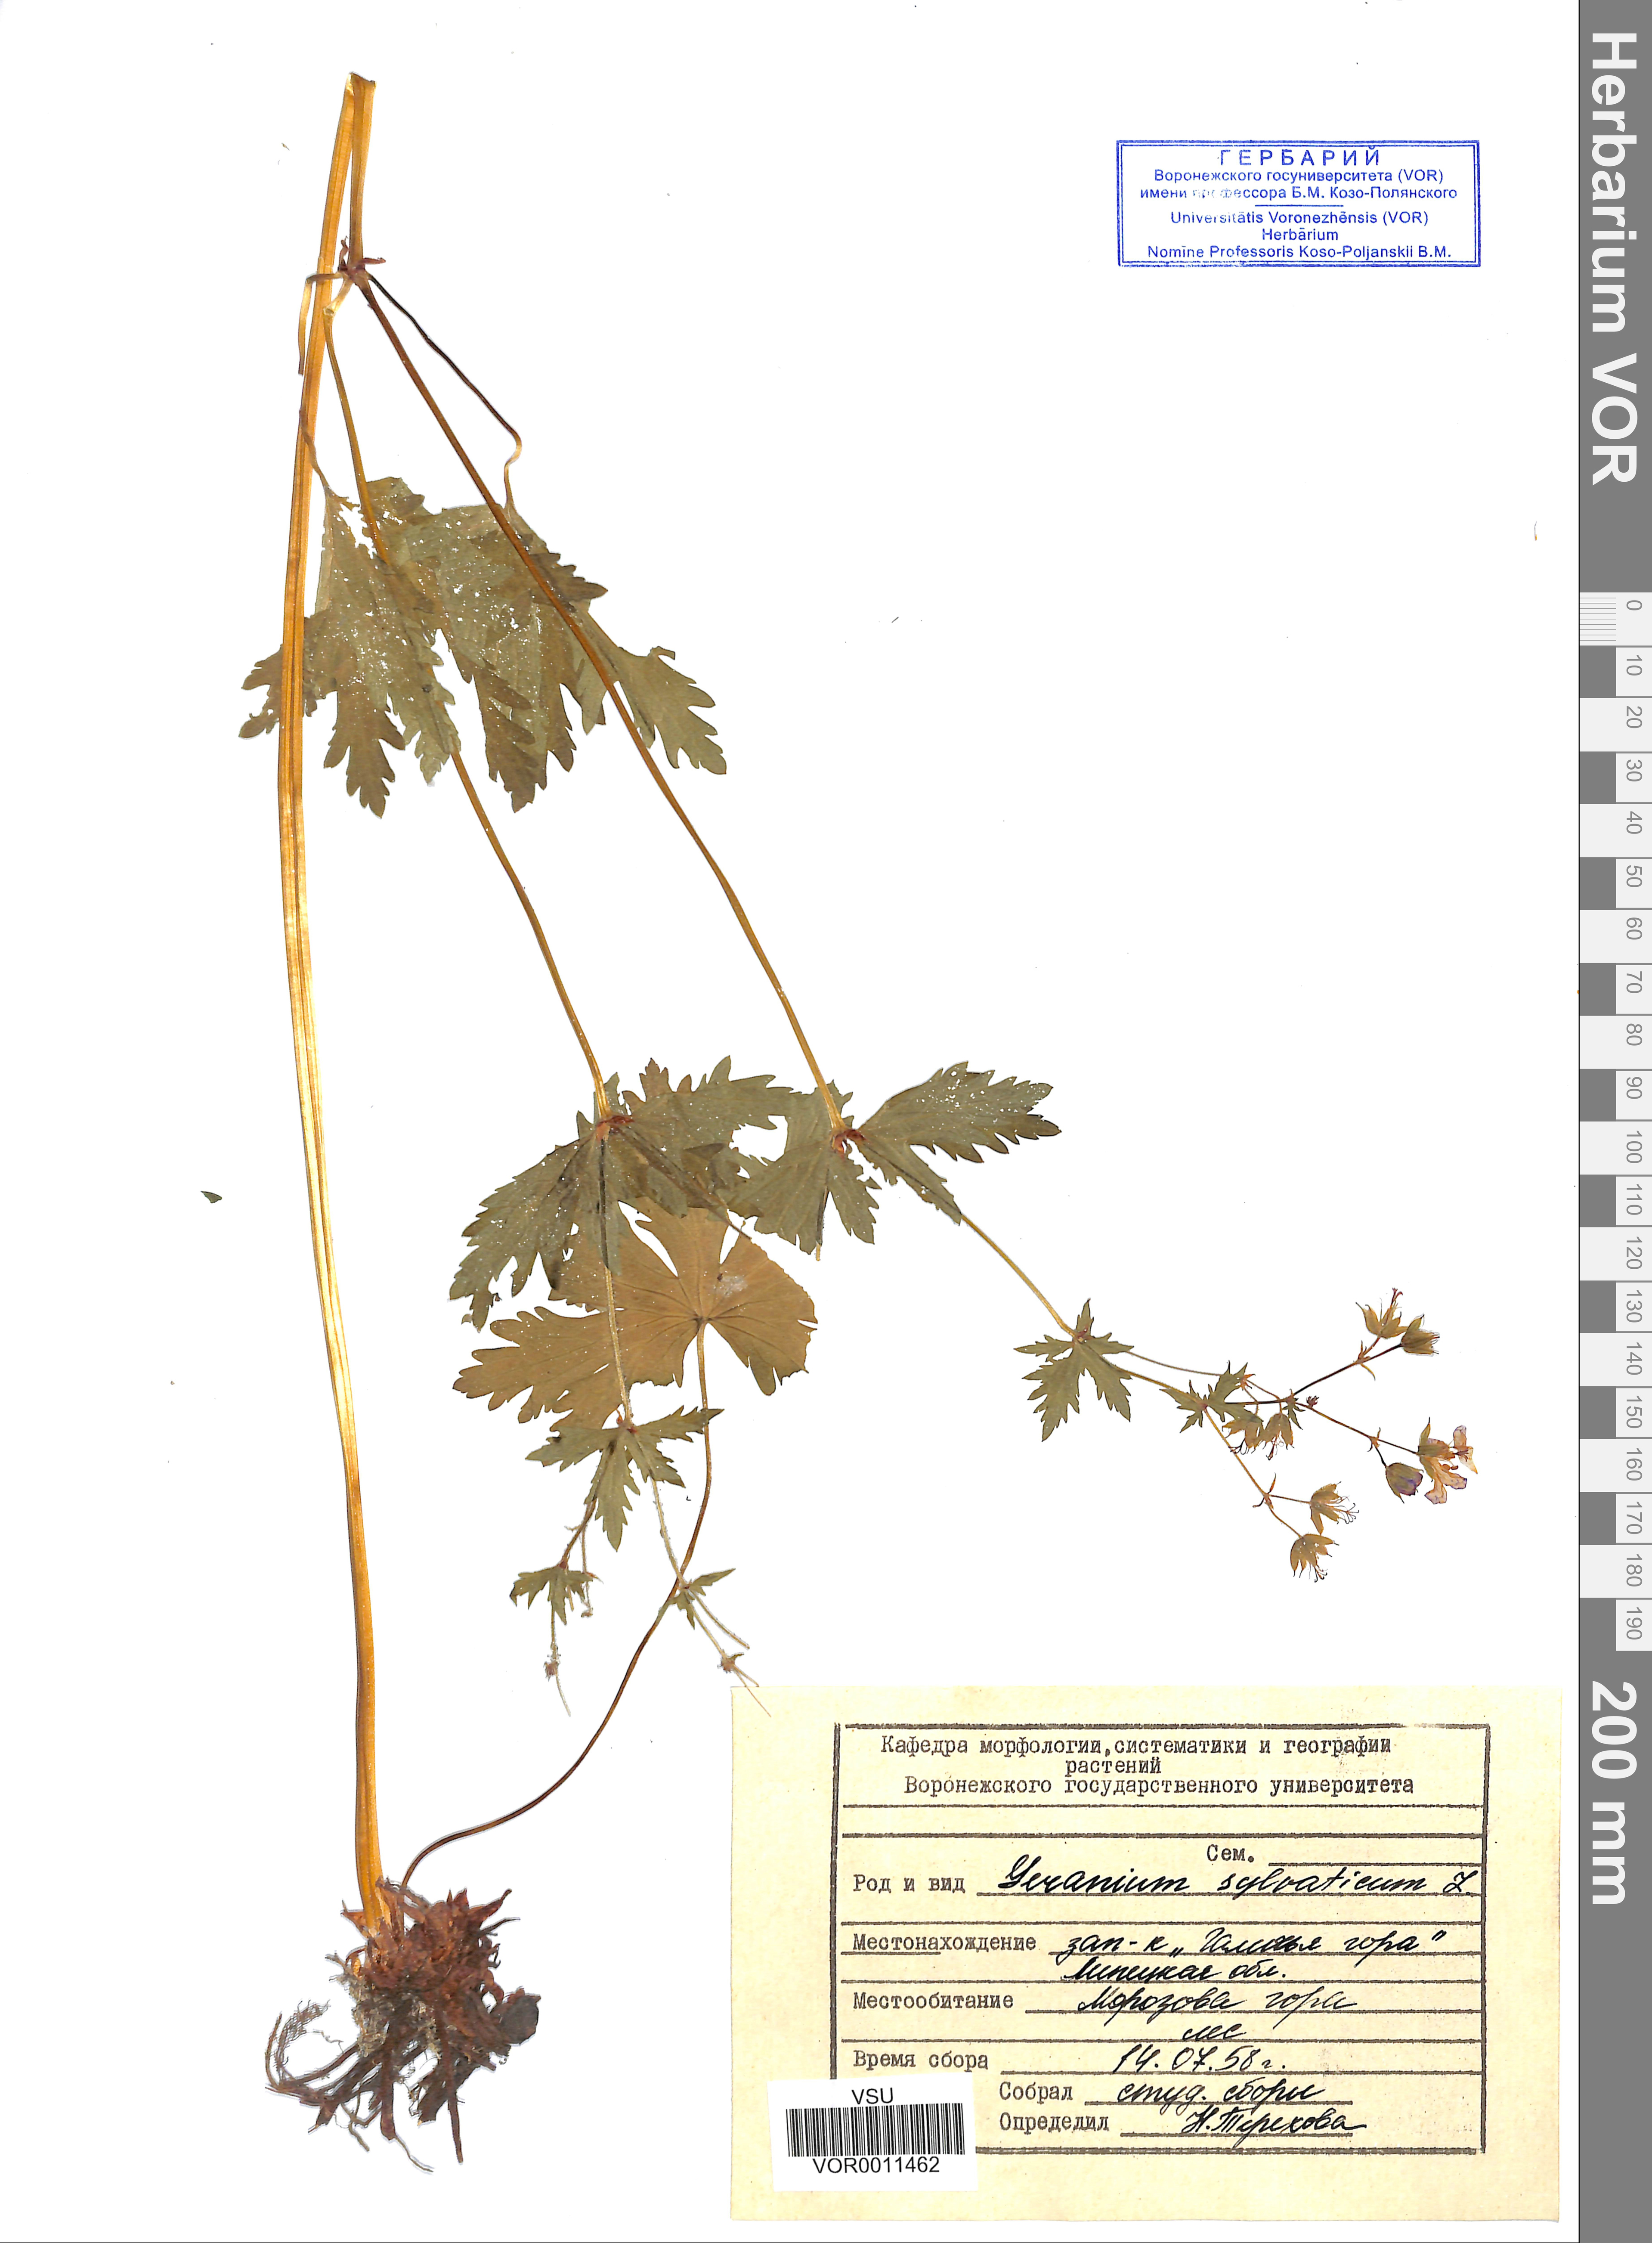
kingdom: Plantae
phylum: Tracheophyta
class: Magnoliopsida
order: Geraniales
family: Geraniaceae
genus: Geranium
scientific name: Geranium sibiricum
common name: Siberian crane's-bill
